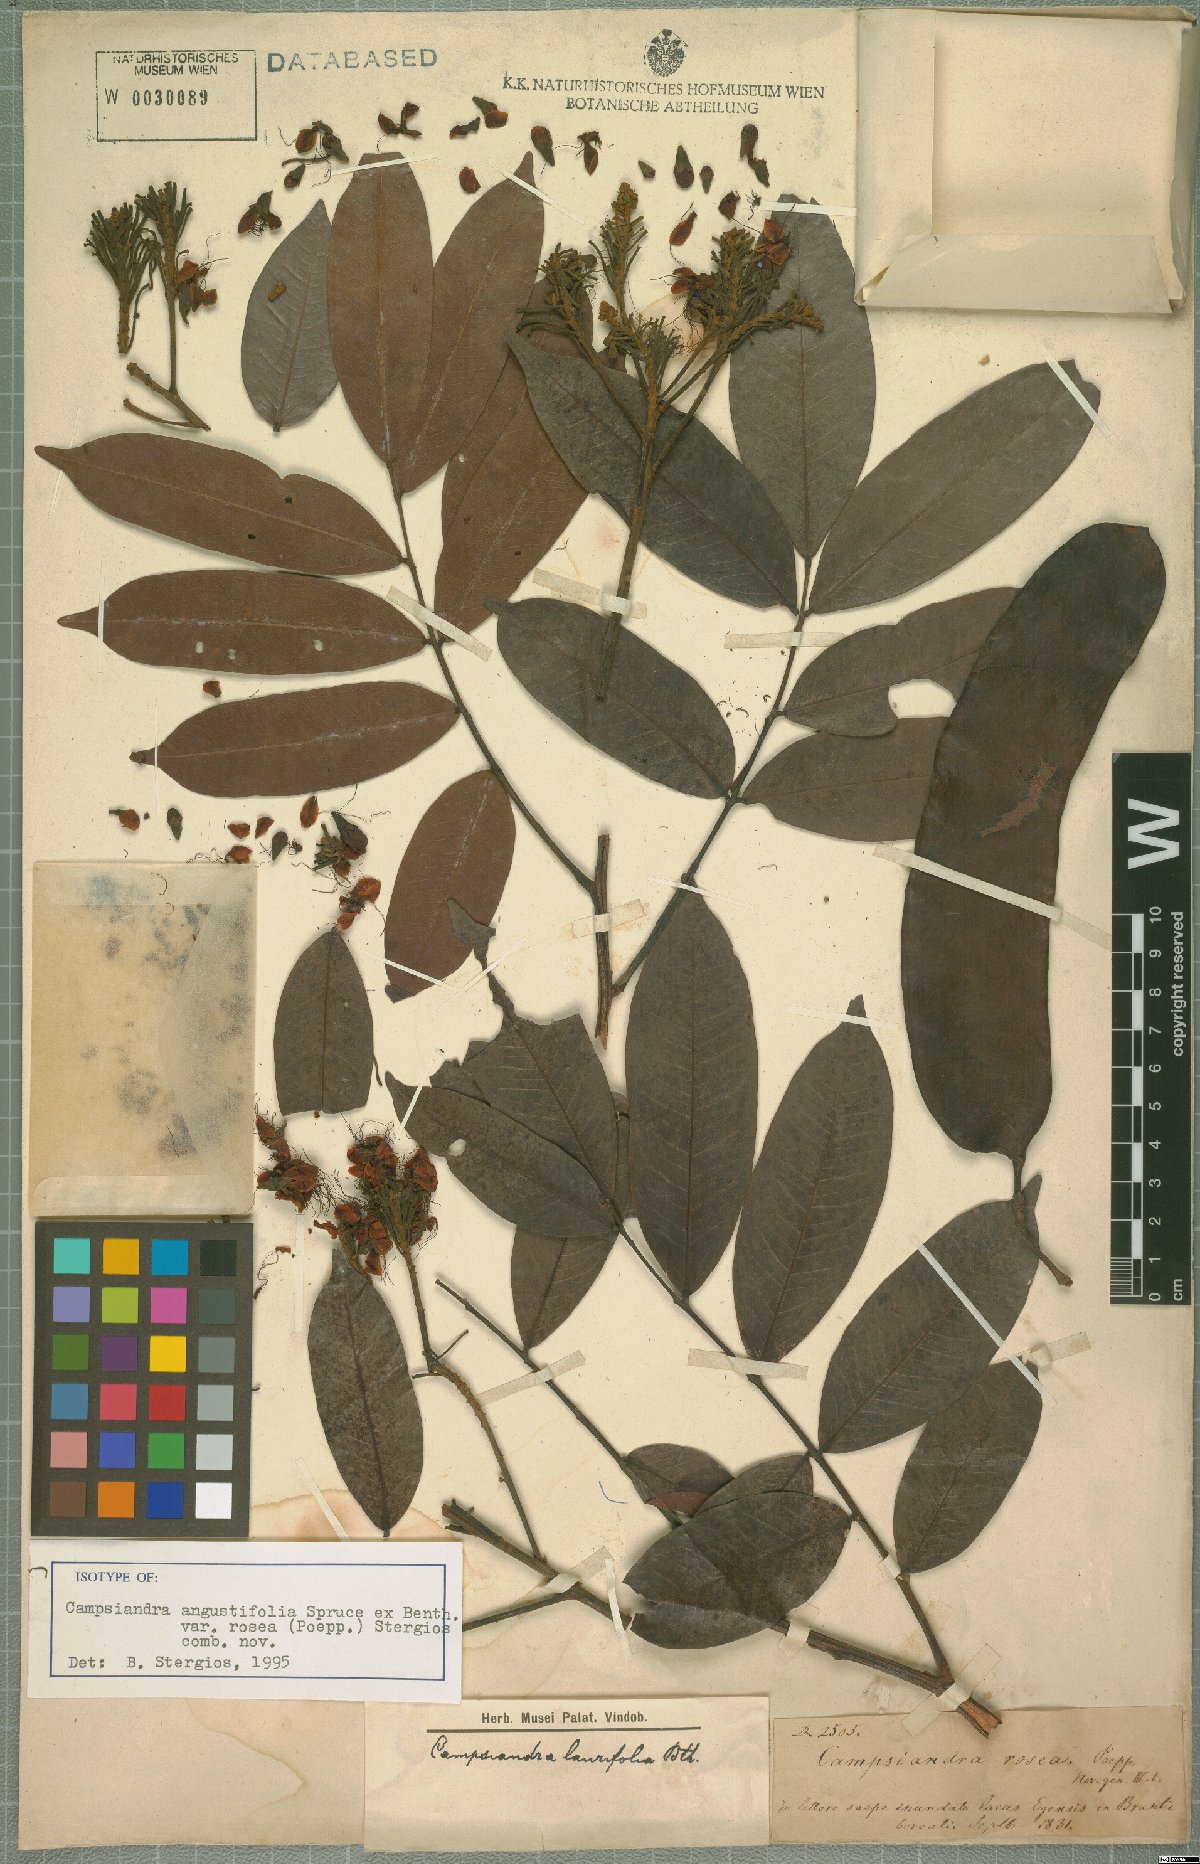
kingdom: Plantae
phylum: Tracheophyta
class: Magnoliopsida
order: Fabales
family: Fabaceae
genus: Campsiandra
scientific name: Campsiandra angustifolia
